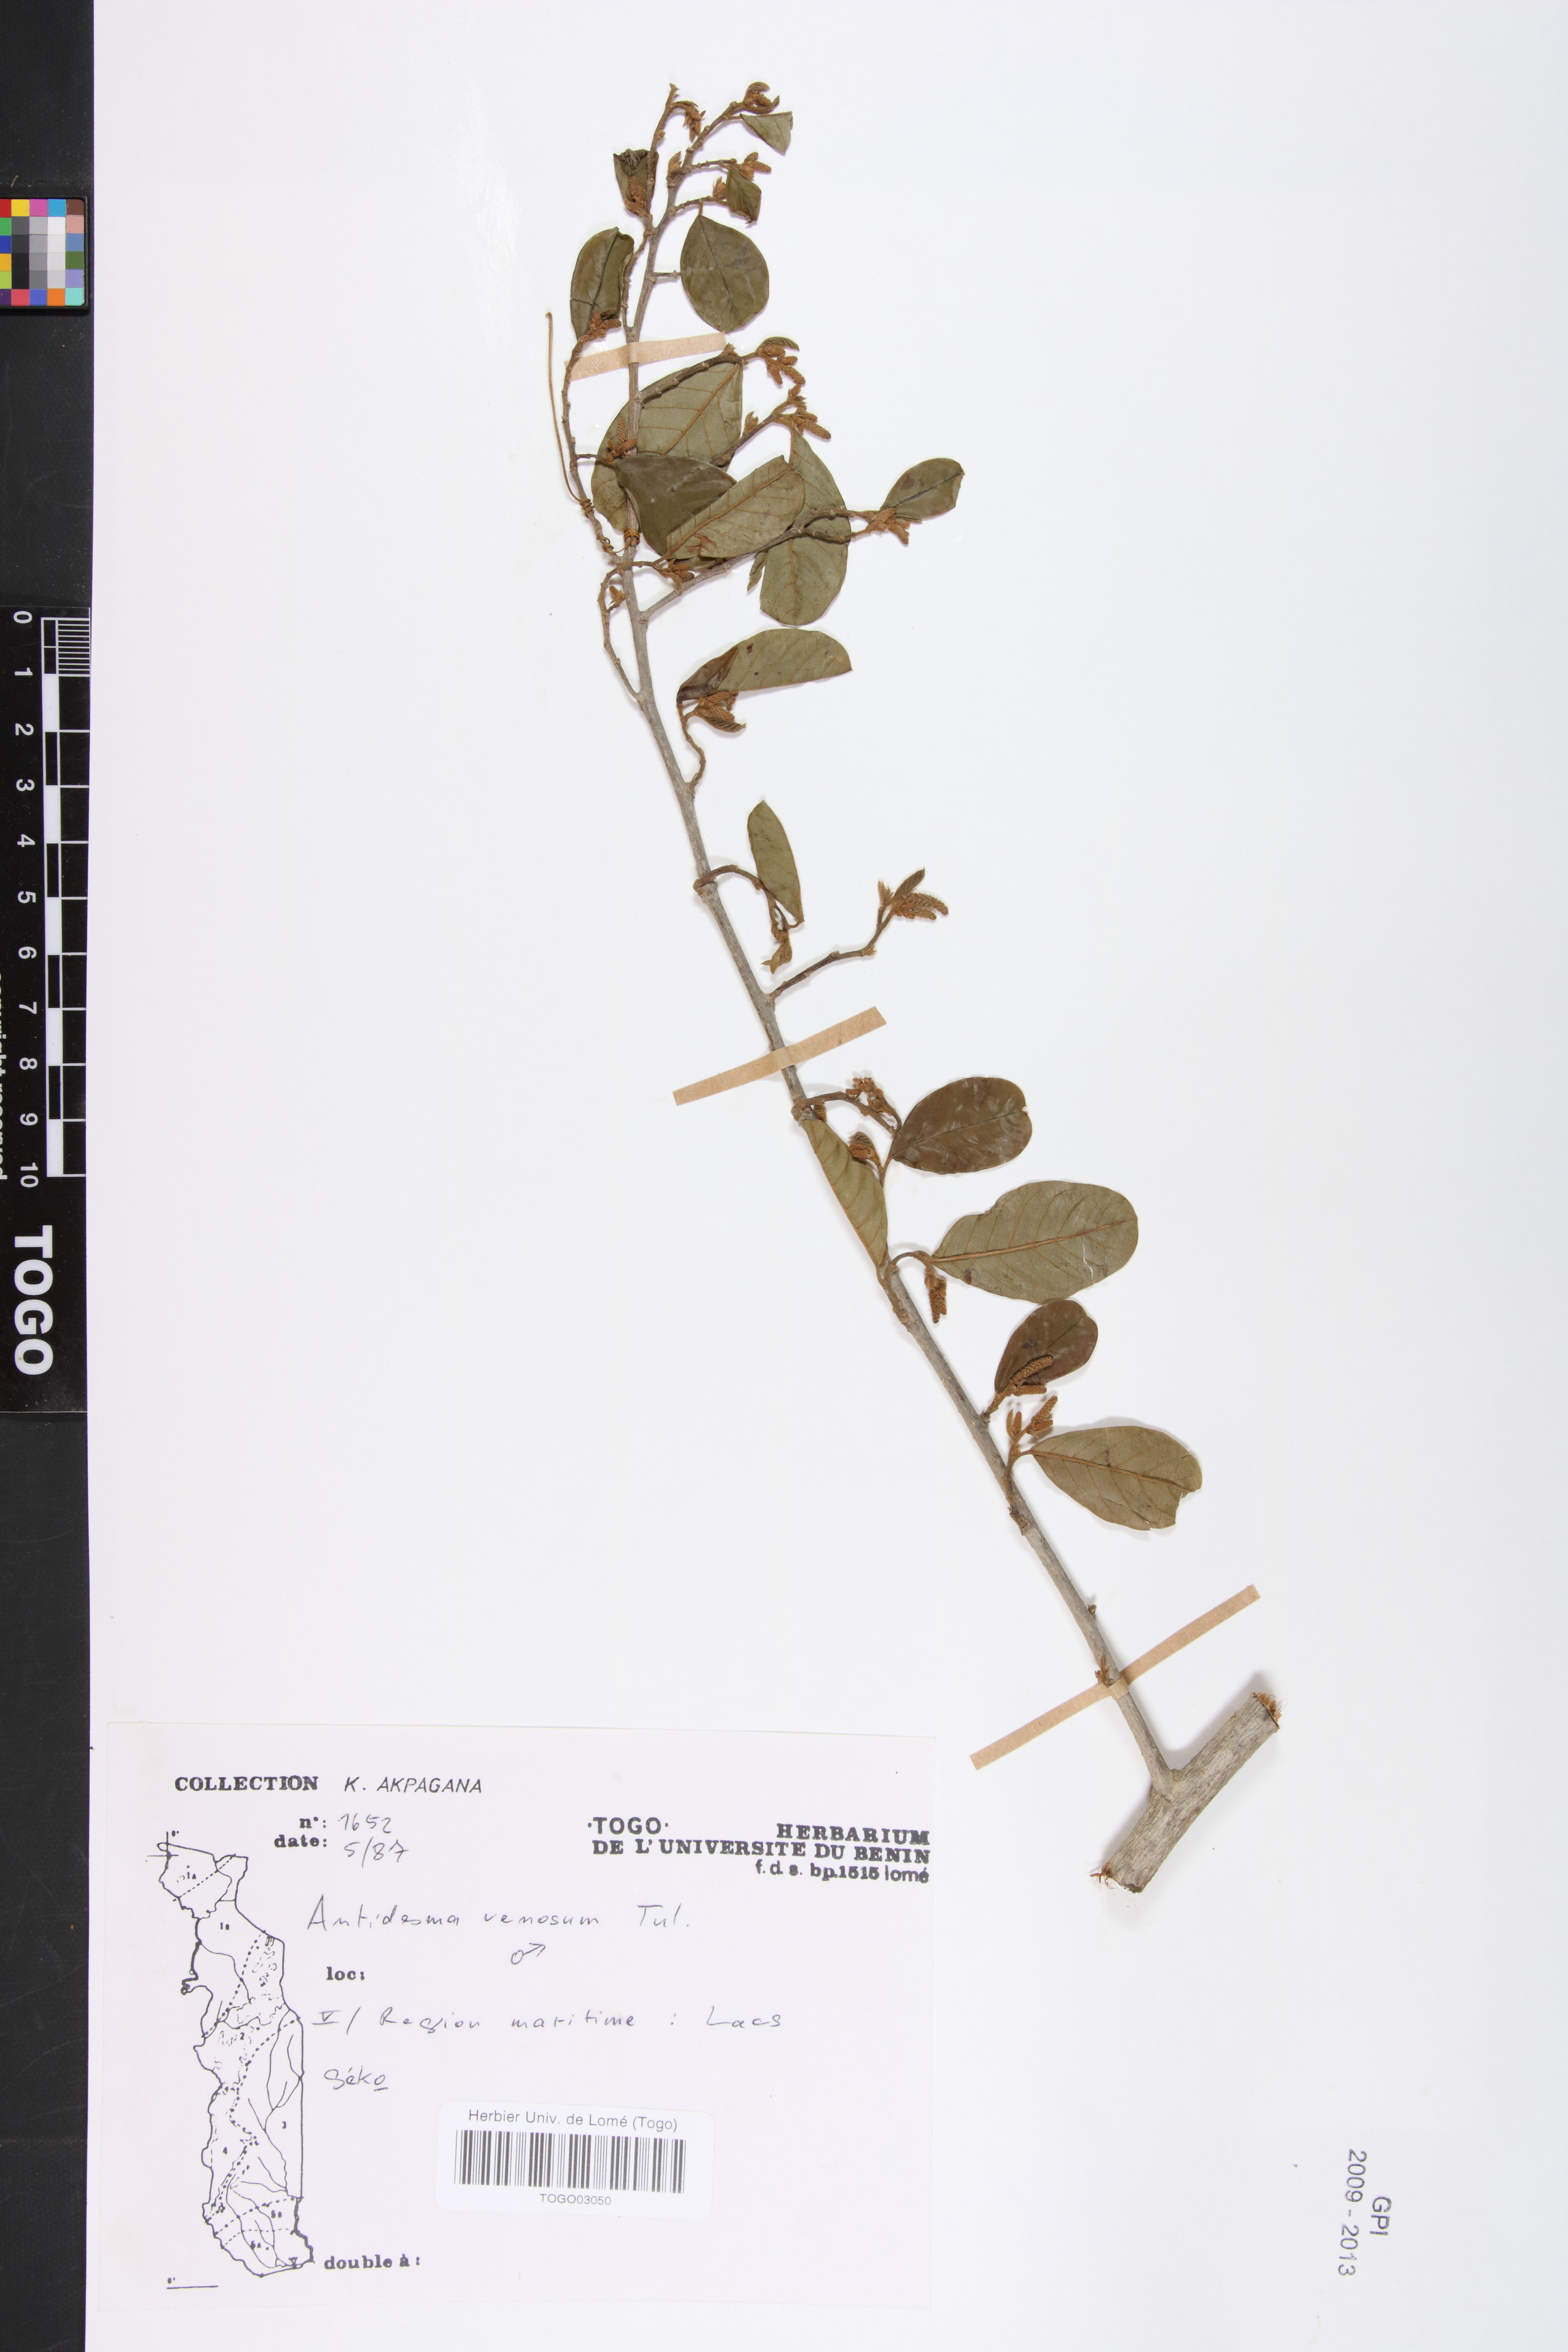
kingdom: Plantae
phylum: Tracheophyta
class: Magnoliopsida
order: Malpighiales
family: Phyllanthaceae
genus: Antidesma
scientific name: Antidesma venosum
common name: Tassel-berry
